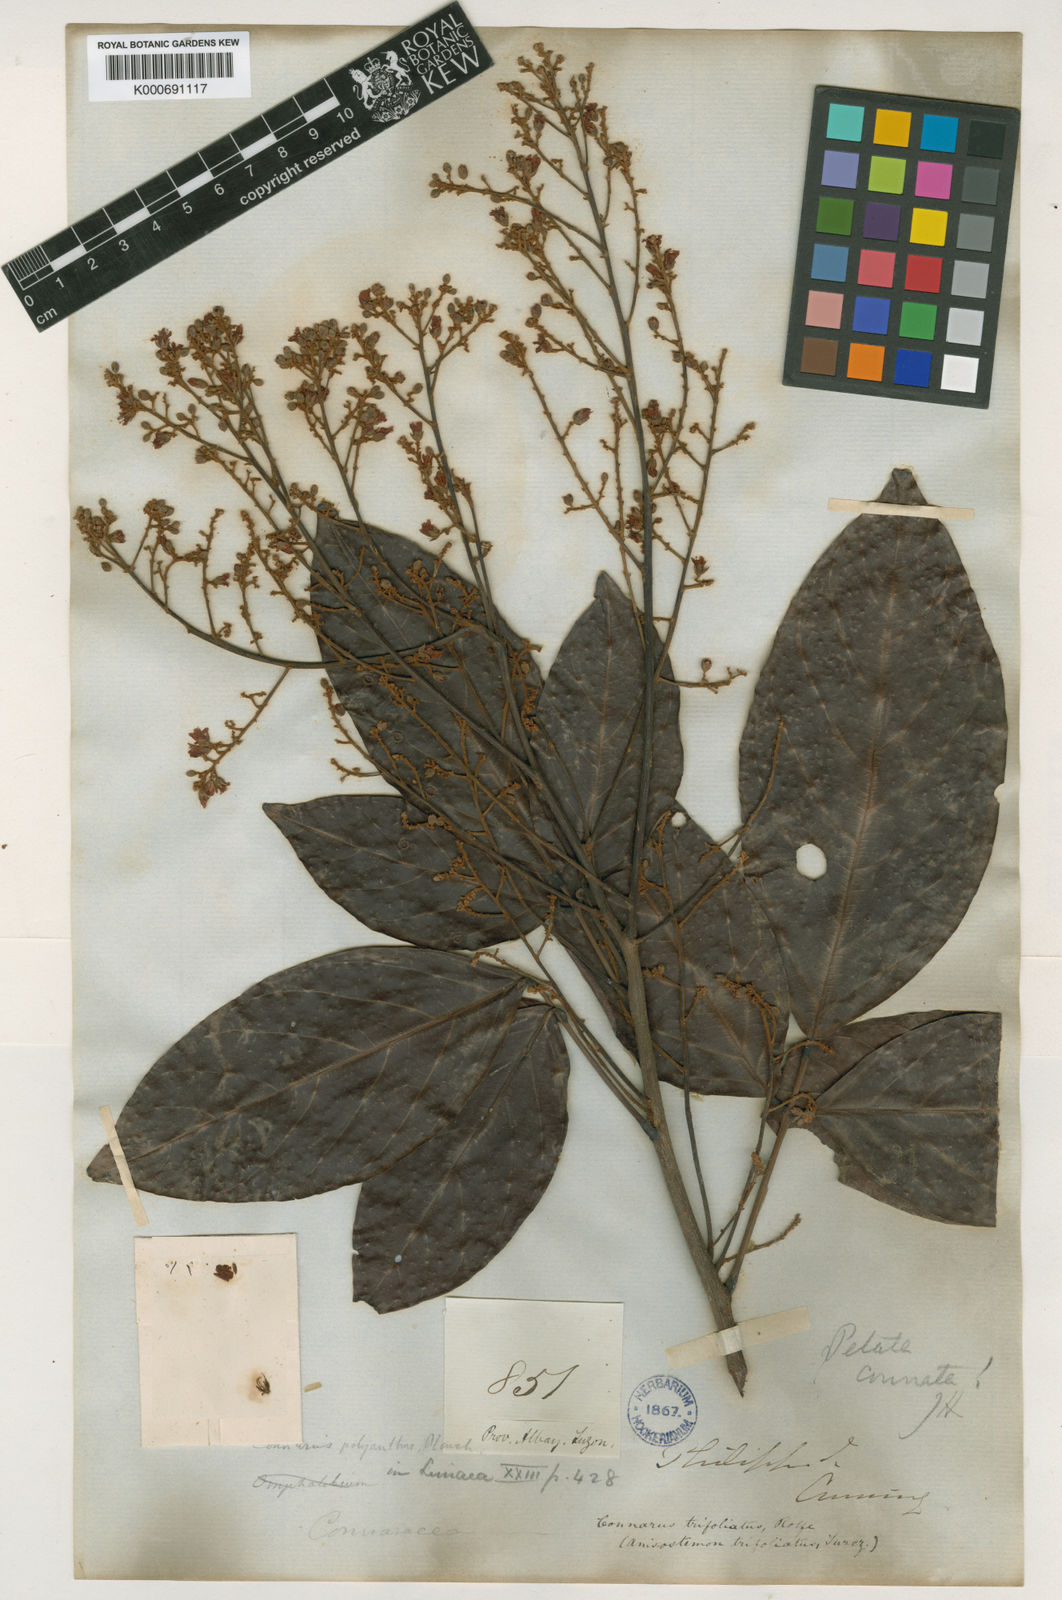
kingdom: Plantae
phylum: Tracheophyta
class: Magnoliopsida
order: Oxalidales
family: Connaraceae
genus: Connarus
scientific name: Connarus grandis
